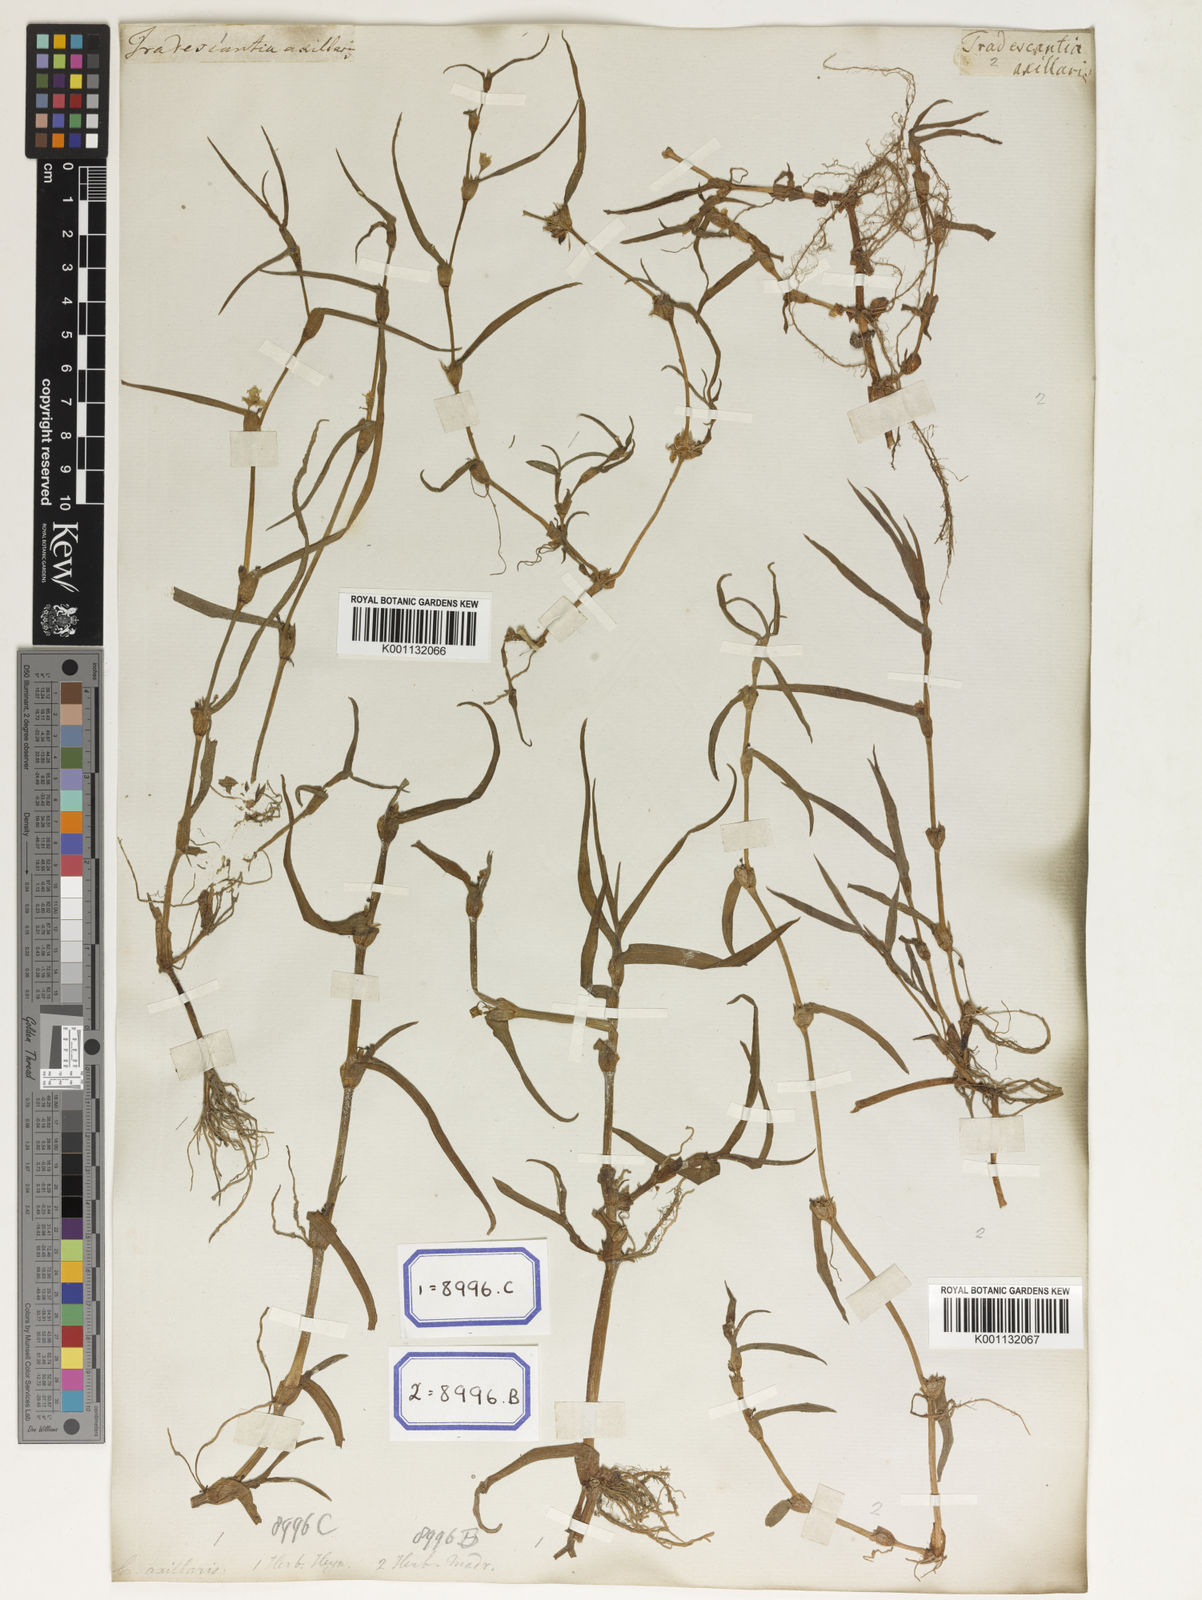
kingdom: Plantae
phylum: Tracheophyta
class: Liliopsida
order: Commelinales
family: Commelinaceae
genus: Cyanotis
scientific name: Cyanotis
